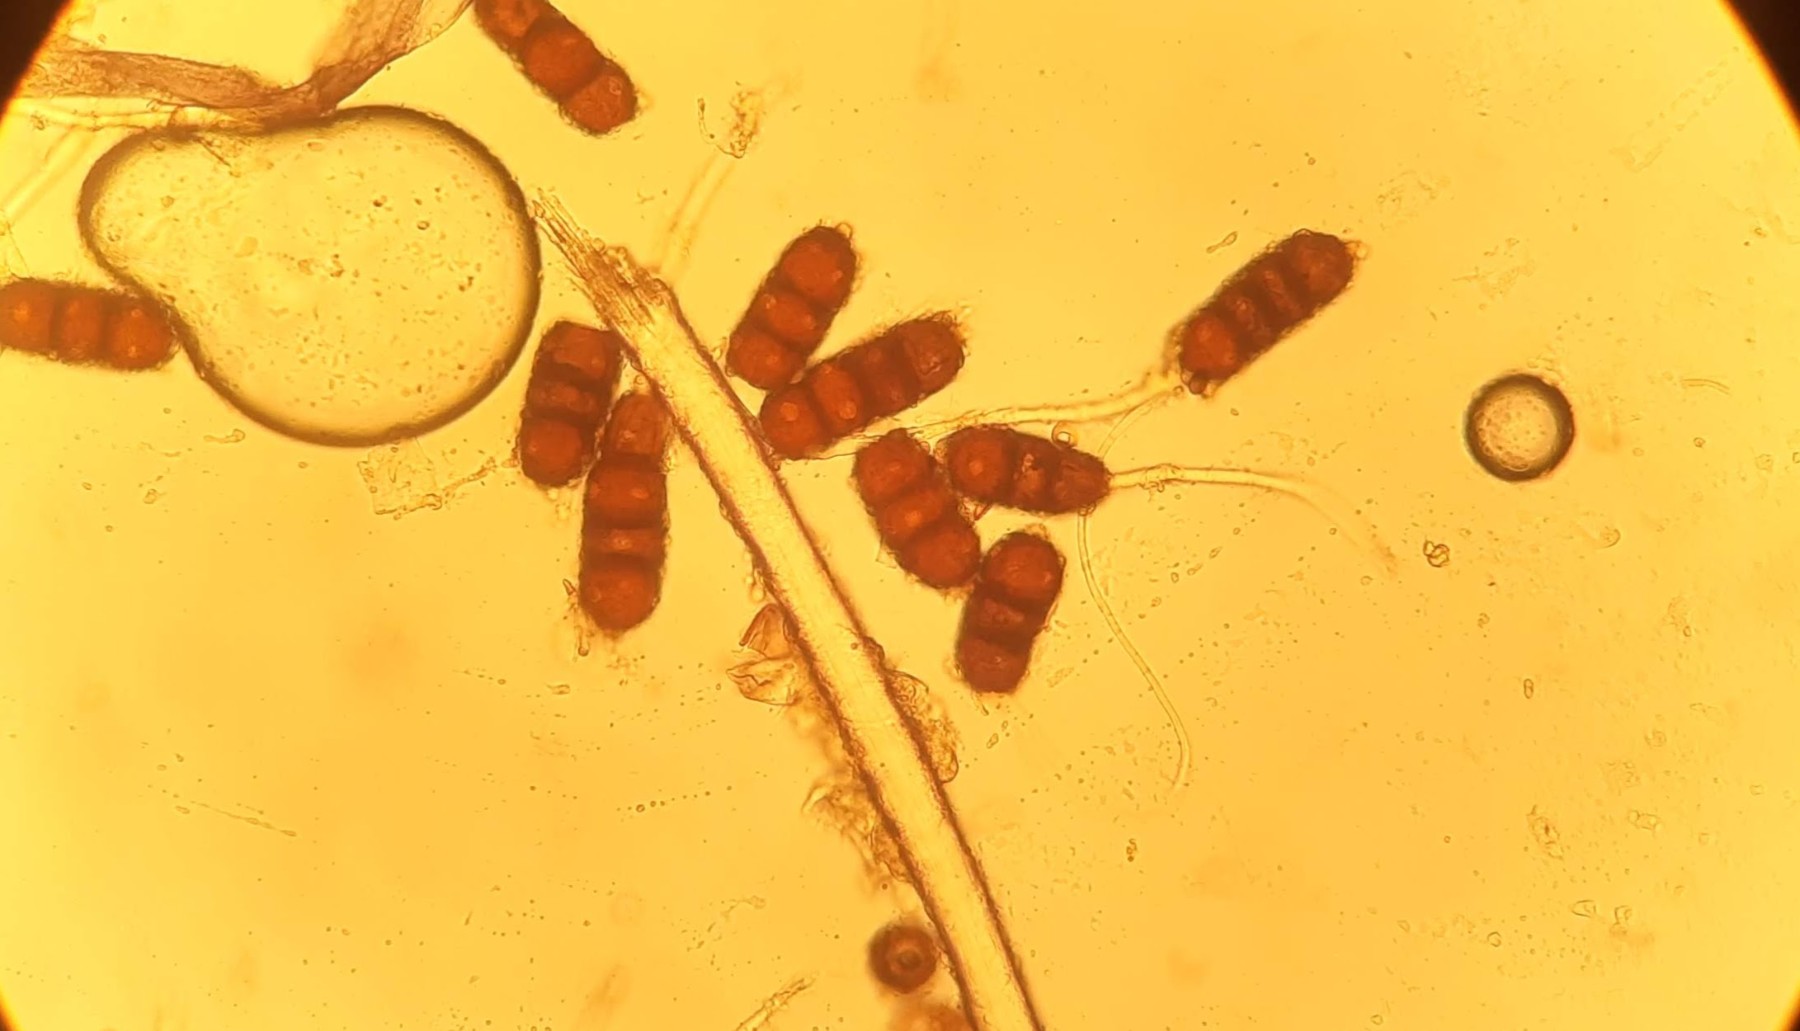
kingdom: Fungi
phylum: Basidiomycota
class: Pucciniomycetes
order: Pucciniales
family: Phragmidiaceae
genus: Phragmidium
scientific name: Phragmidium violaceum
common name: violet flercellerust
